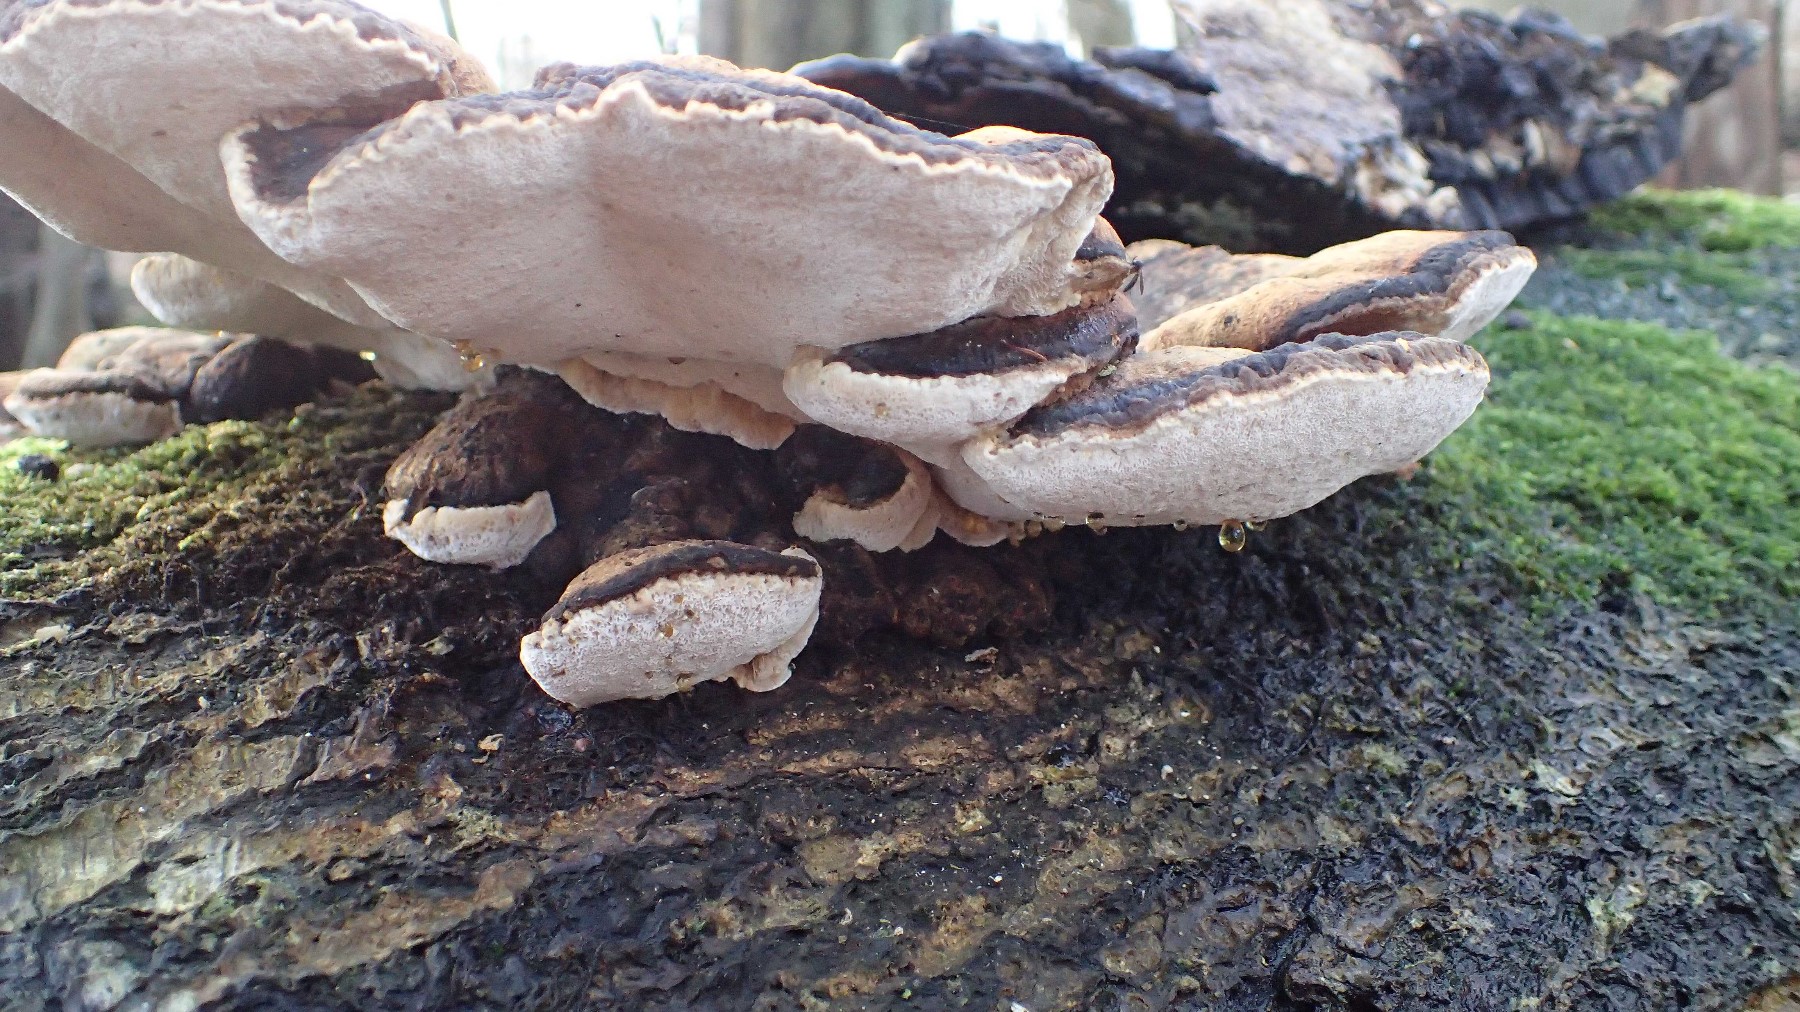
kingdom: Fungi
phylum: Basidiomycota
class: Agaricomycetes
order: Polyporales
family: Ischnodermataceae
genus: Ischnoderma
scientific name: Ischnoderma resinosum
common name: løv-tjæreporesvamp
